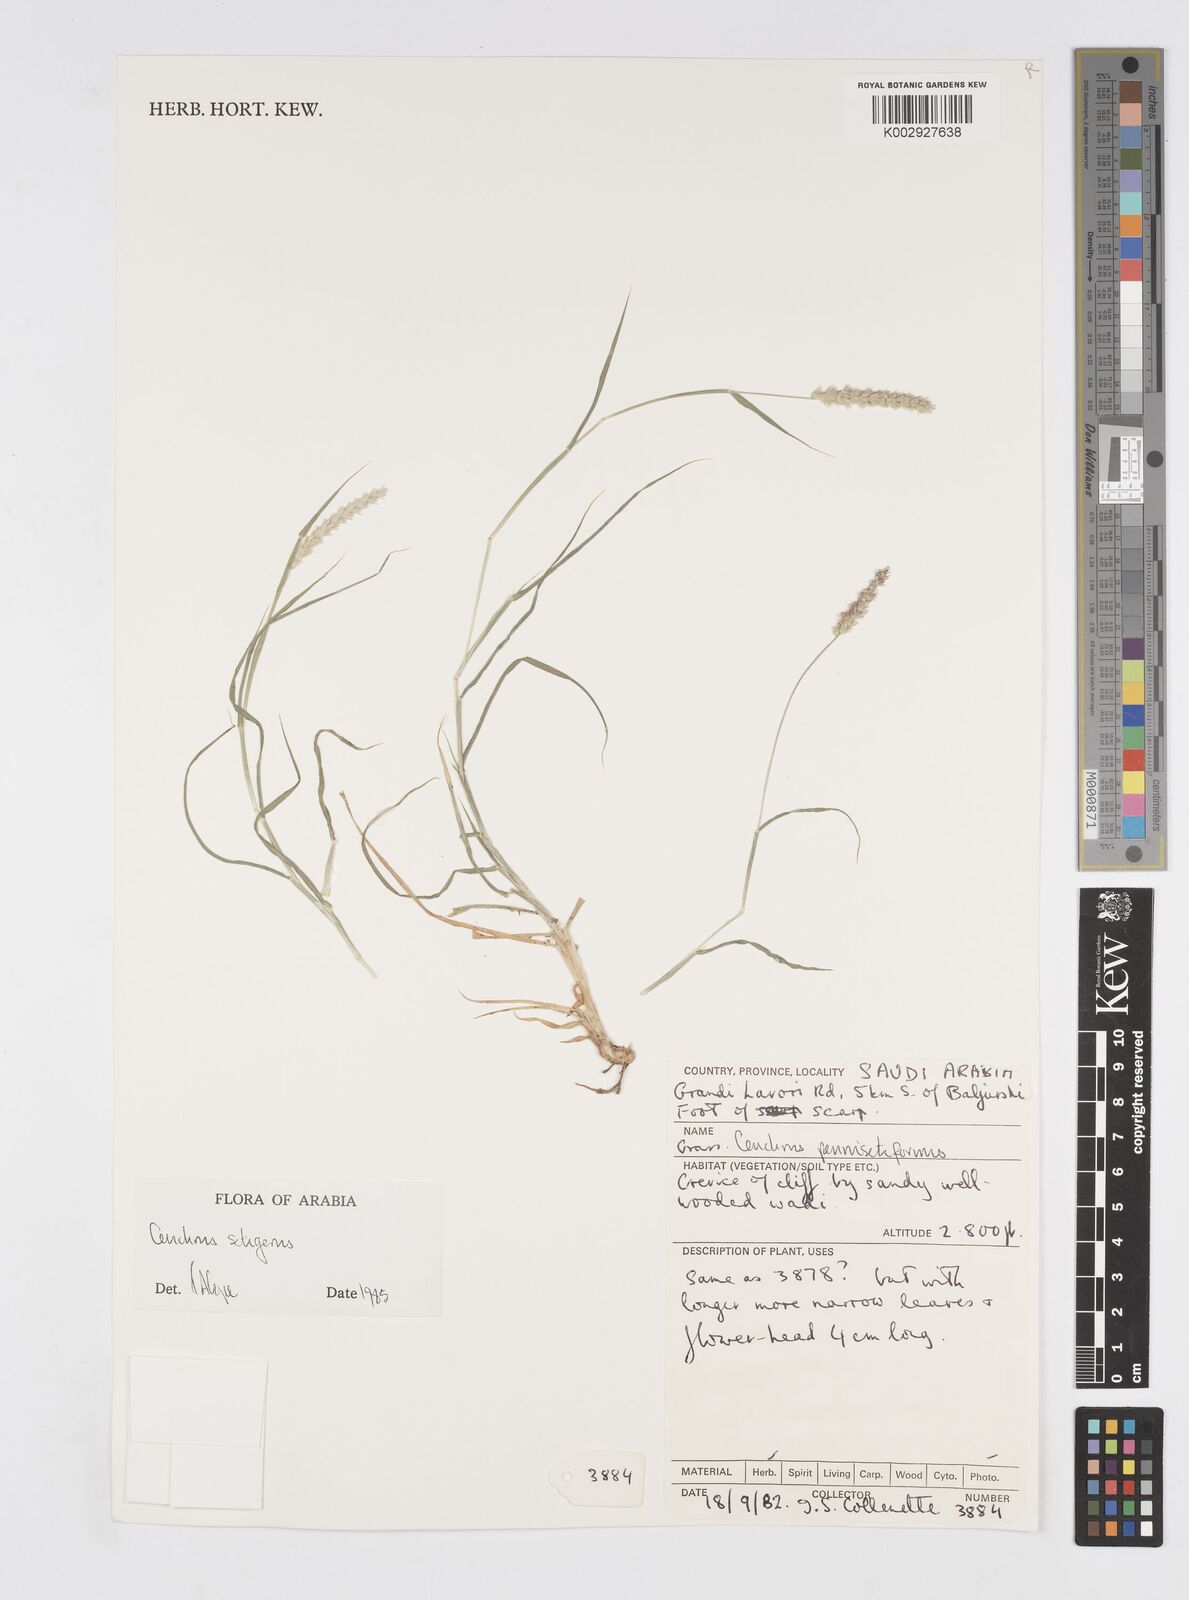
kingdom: Plantae
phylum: Tracheophyta
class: Liliopsida
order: Poales
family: Poaceae
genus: Cenchrus
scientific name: Cenchrus setigerus
